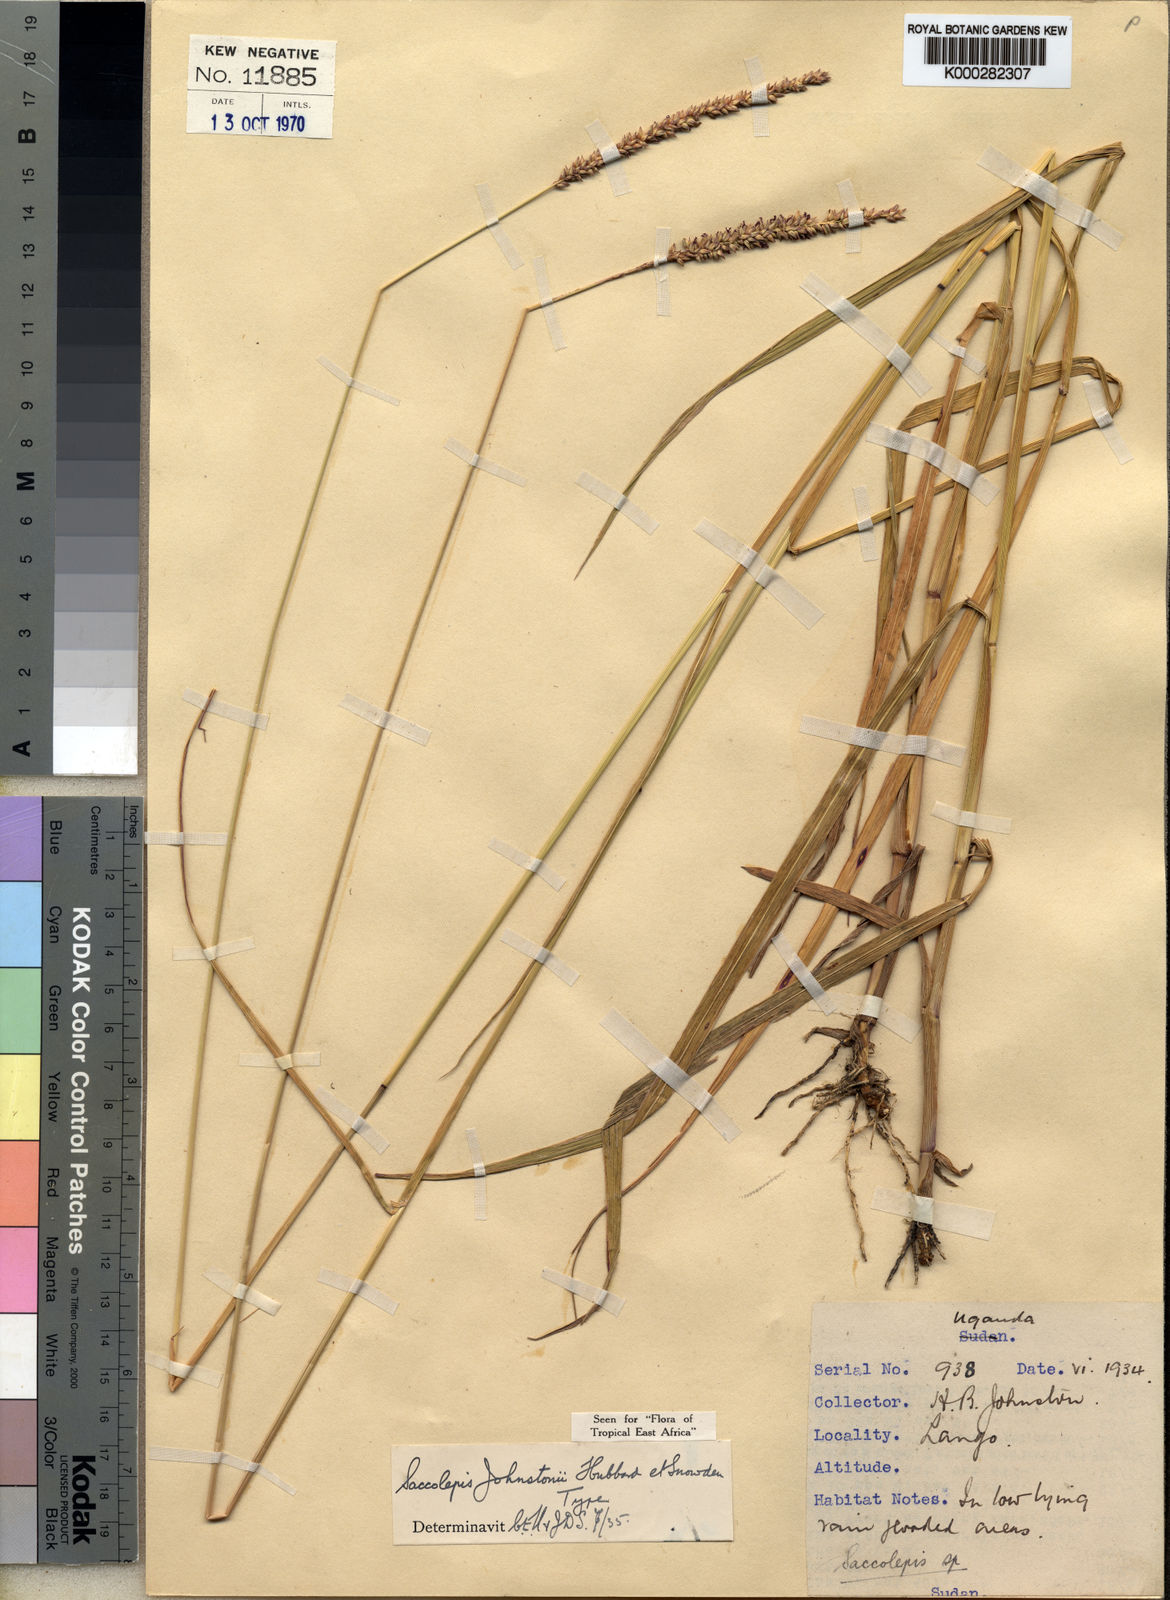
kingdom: Plantae
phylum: Tracheophyta
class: Liliopsida
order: Poales
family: Poaceae
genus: Sacciolepis
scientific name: Sacciolepis leptorrhachis
